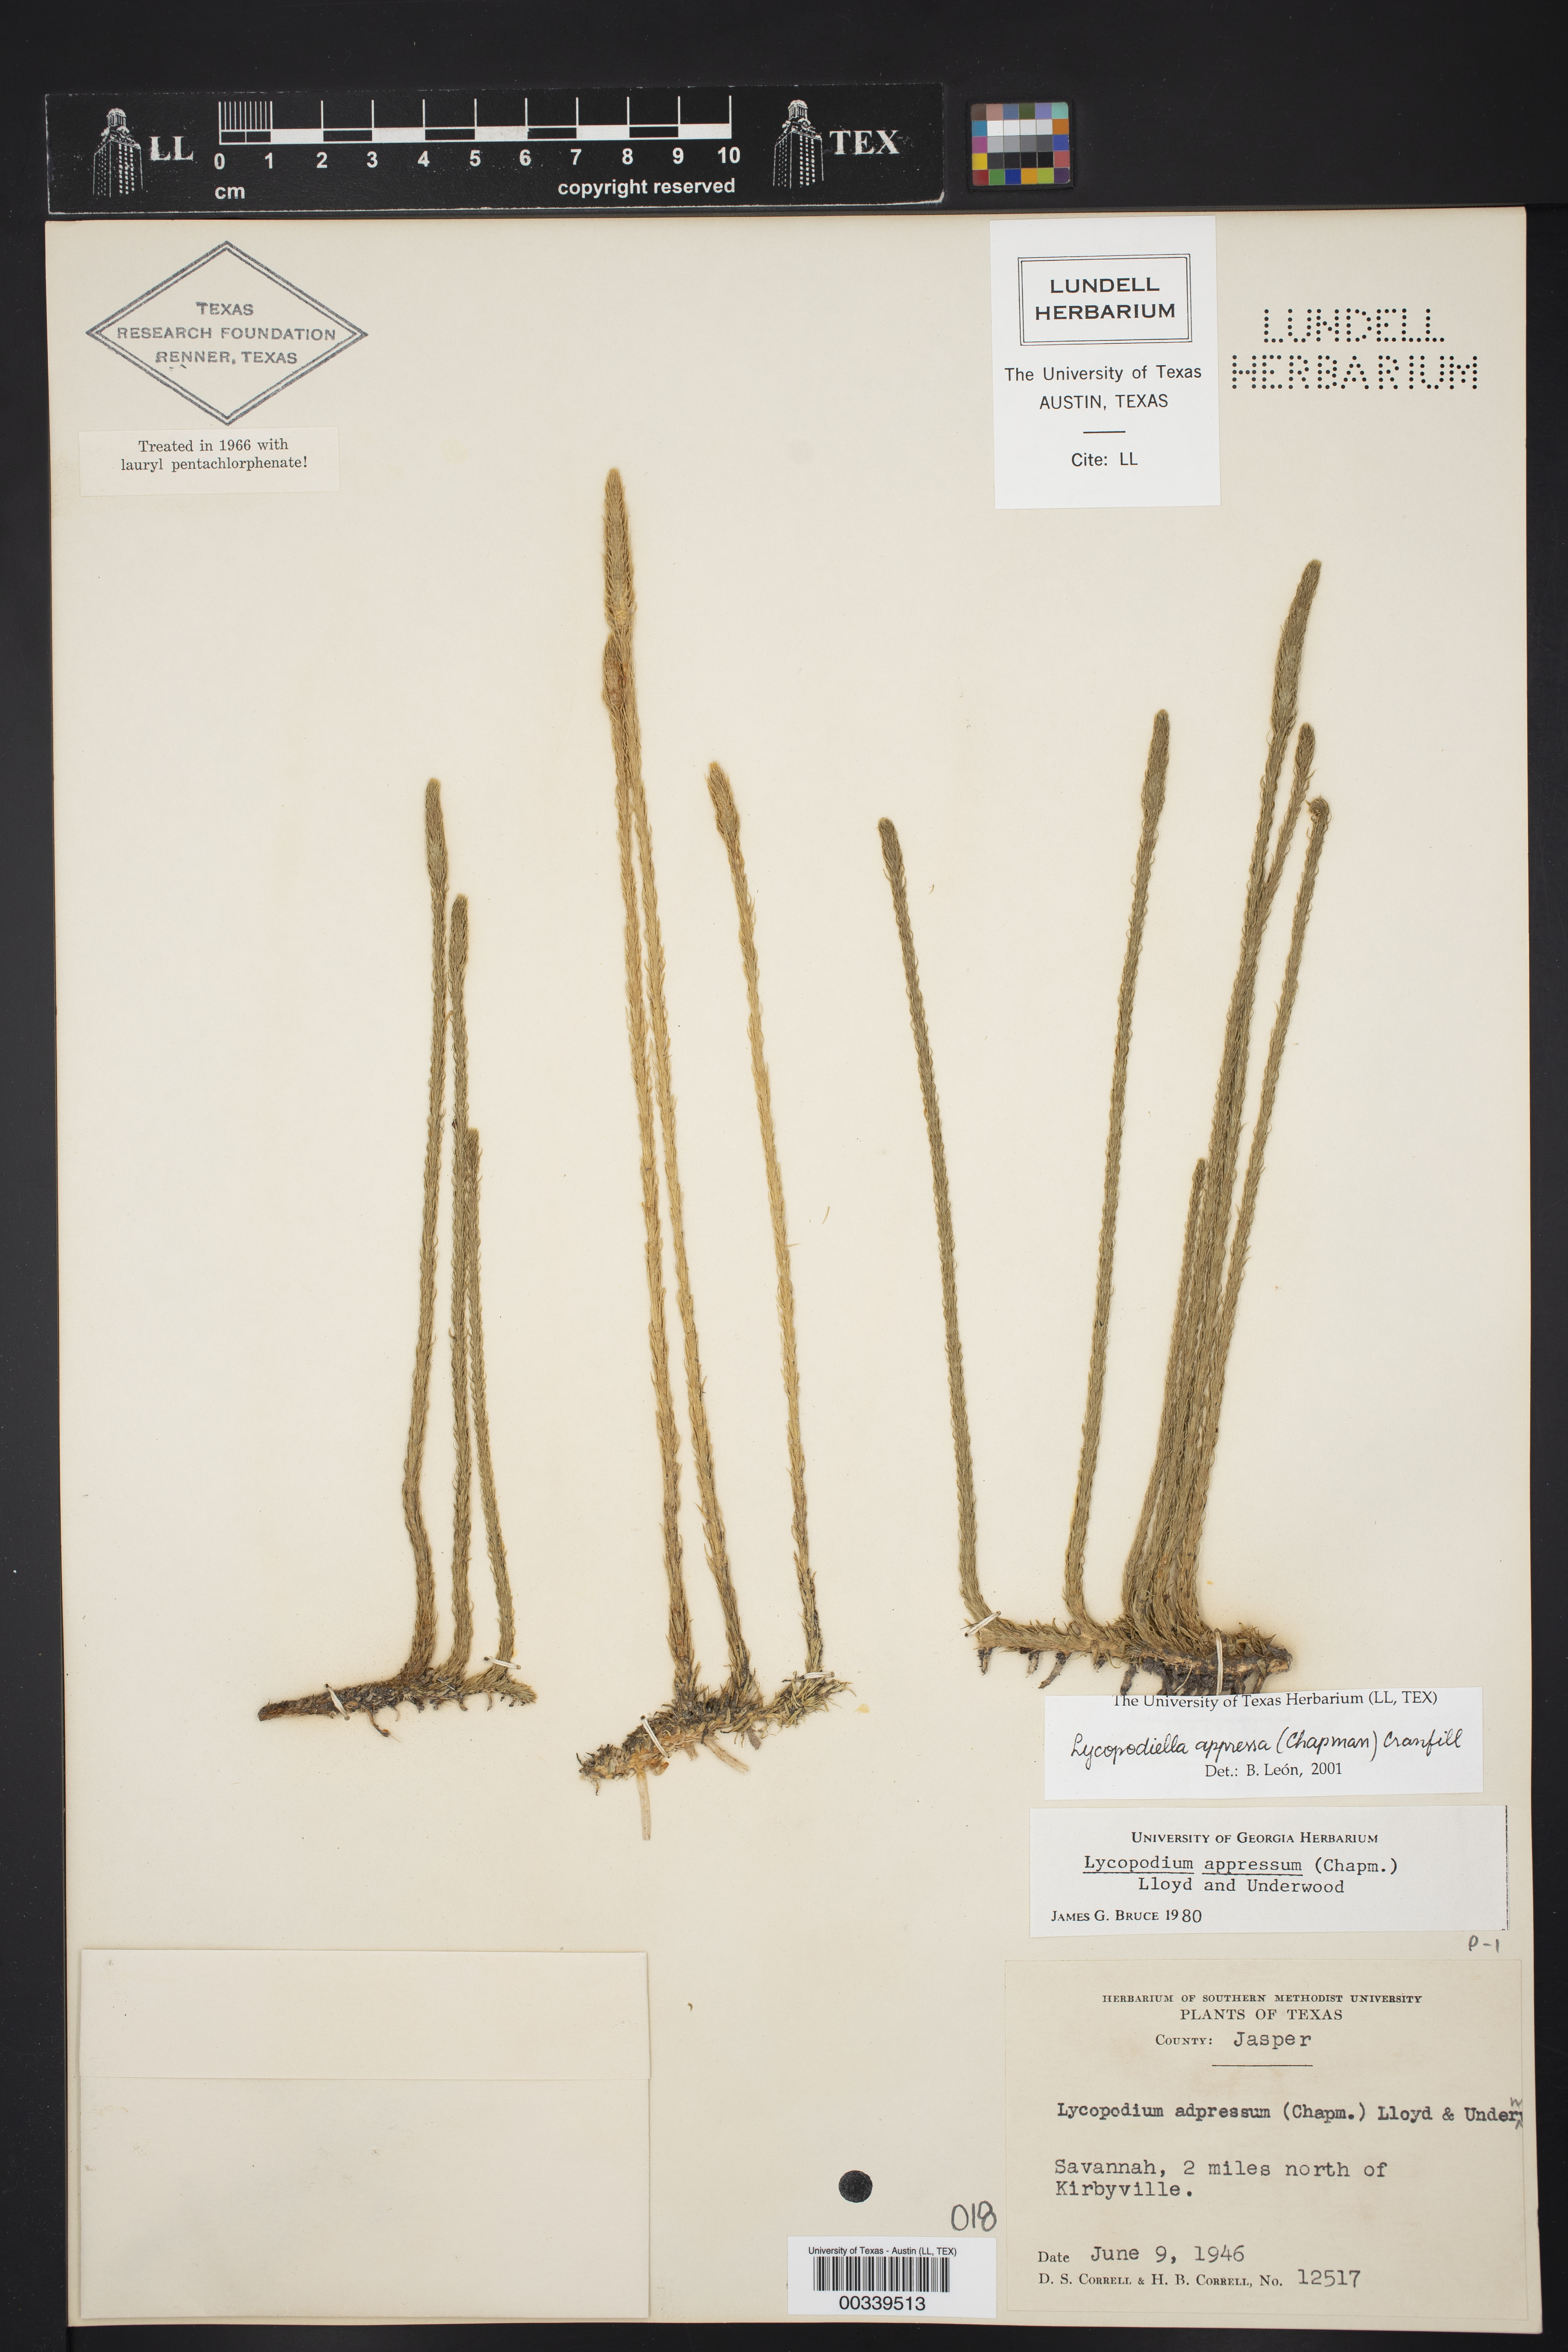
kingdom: Plantae
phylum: Tracheophyta
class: Lycopodiopsida
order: Lycopodiales
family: Lycopodiaceae
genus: Lycopodiella
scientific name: Lycopodiella appressa
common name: Appressed bog clubmoss
